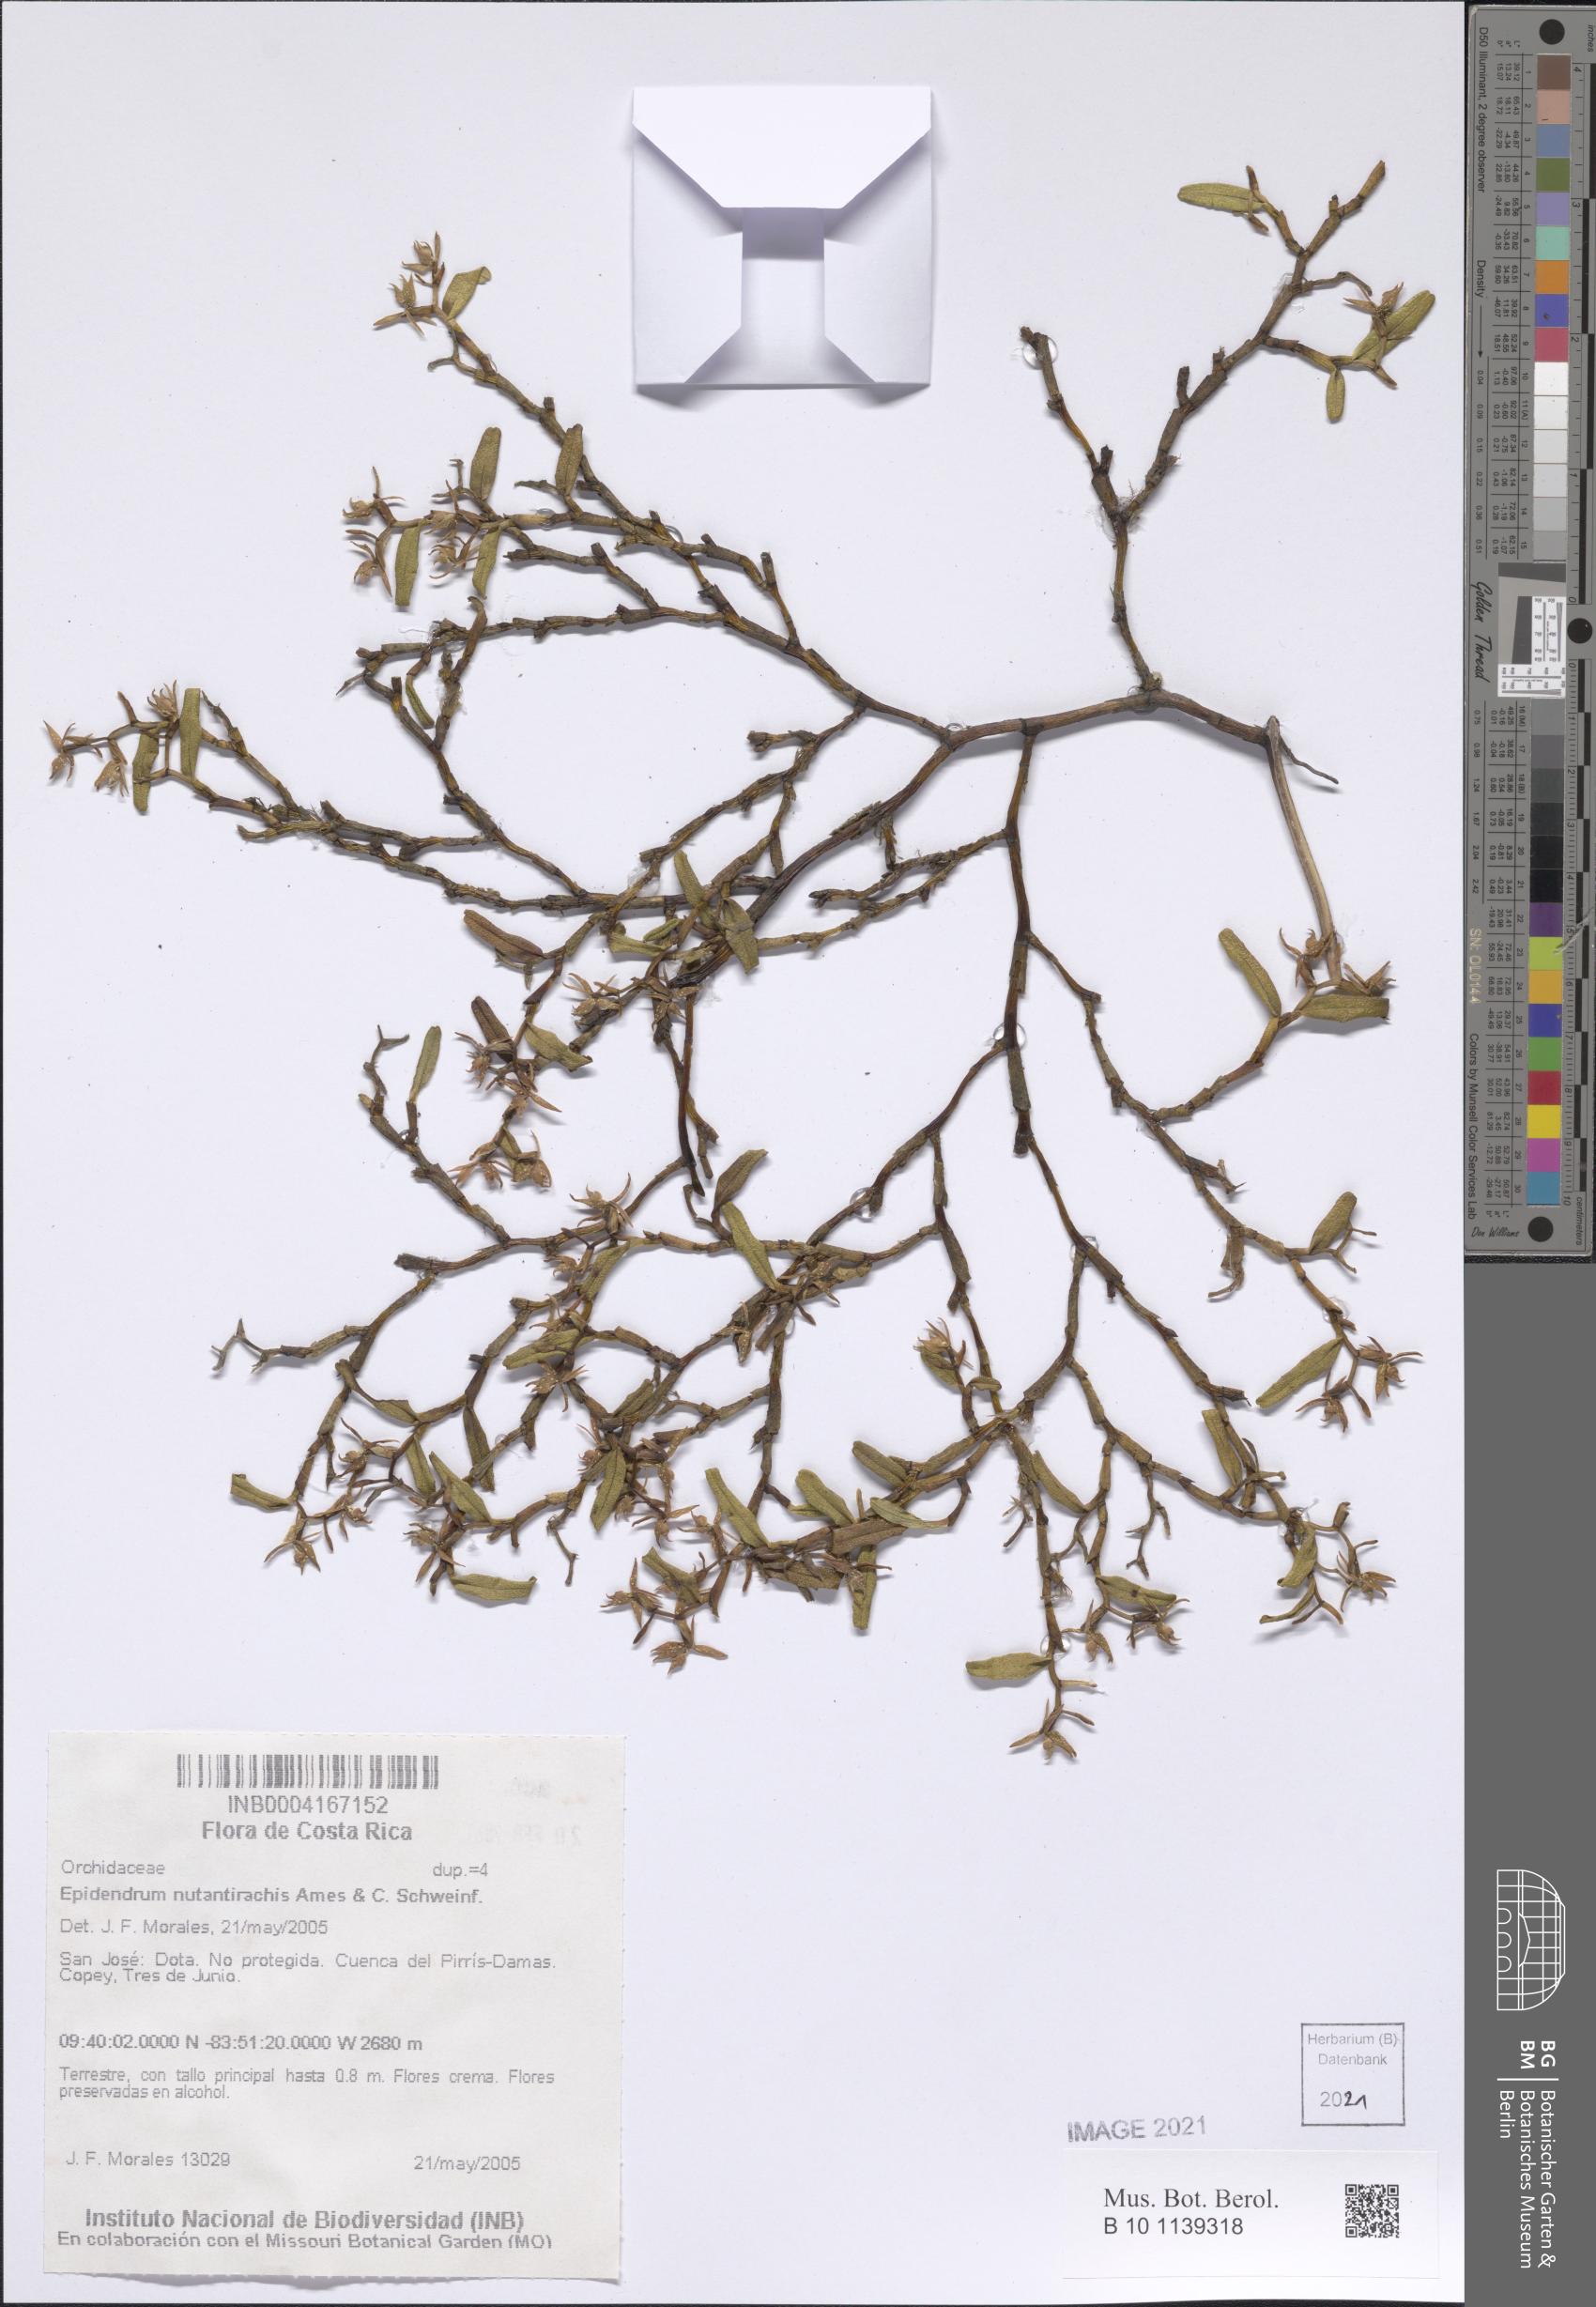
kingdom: Plantae
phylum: Tracheophyta
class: Liliopsida
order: Asparagales
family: Orchidaceae
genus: Epidendrum
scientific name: Epidendrum nutantirhachis
